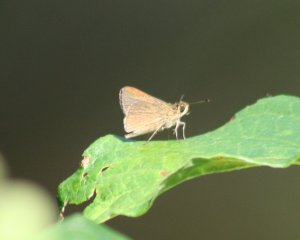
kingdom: Animalia
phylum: Arthropoda
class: Insecta
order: Lepidoptera
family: Hesperiidae
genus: Polites
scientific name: Polites themistocles
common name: Tawny-edged Skipper
